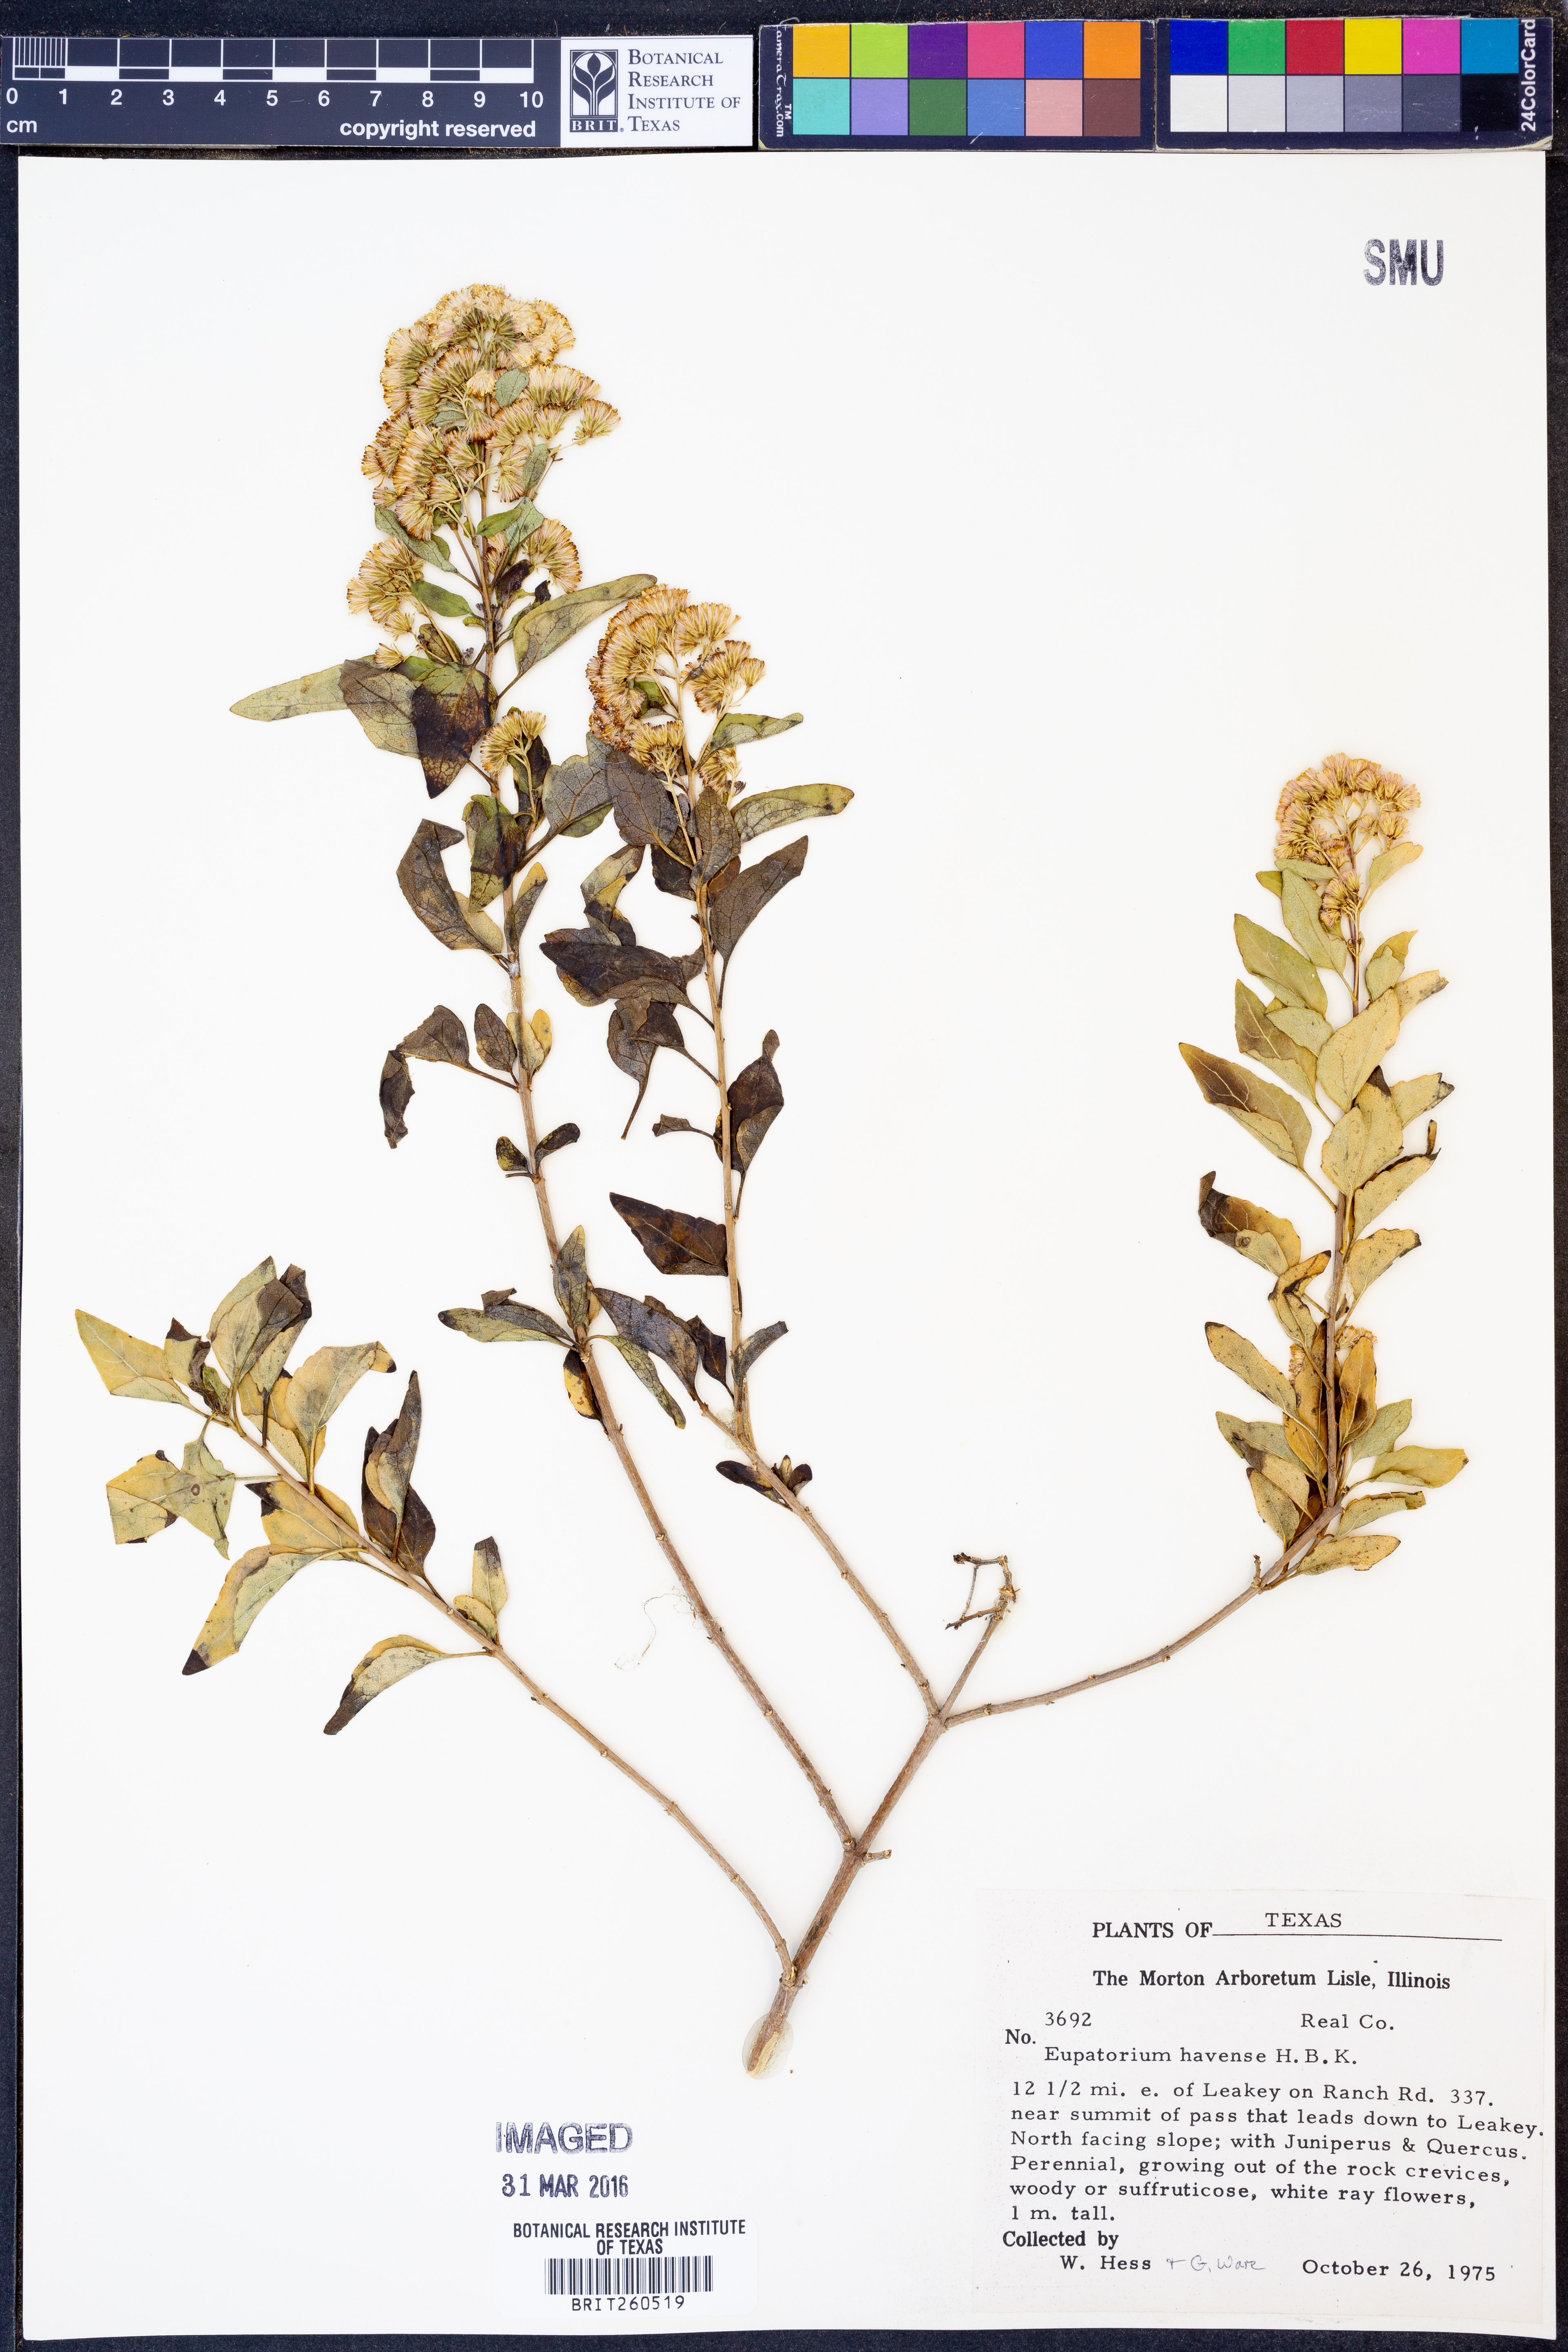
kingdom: Plantae
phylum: Tracheophyta
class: Magnoliopsida
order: Asterales
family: Asteraceae
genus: Ageratina
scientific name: Ageratina havanensis
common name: Havana snakeroot
